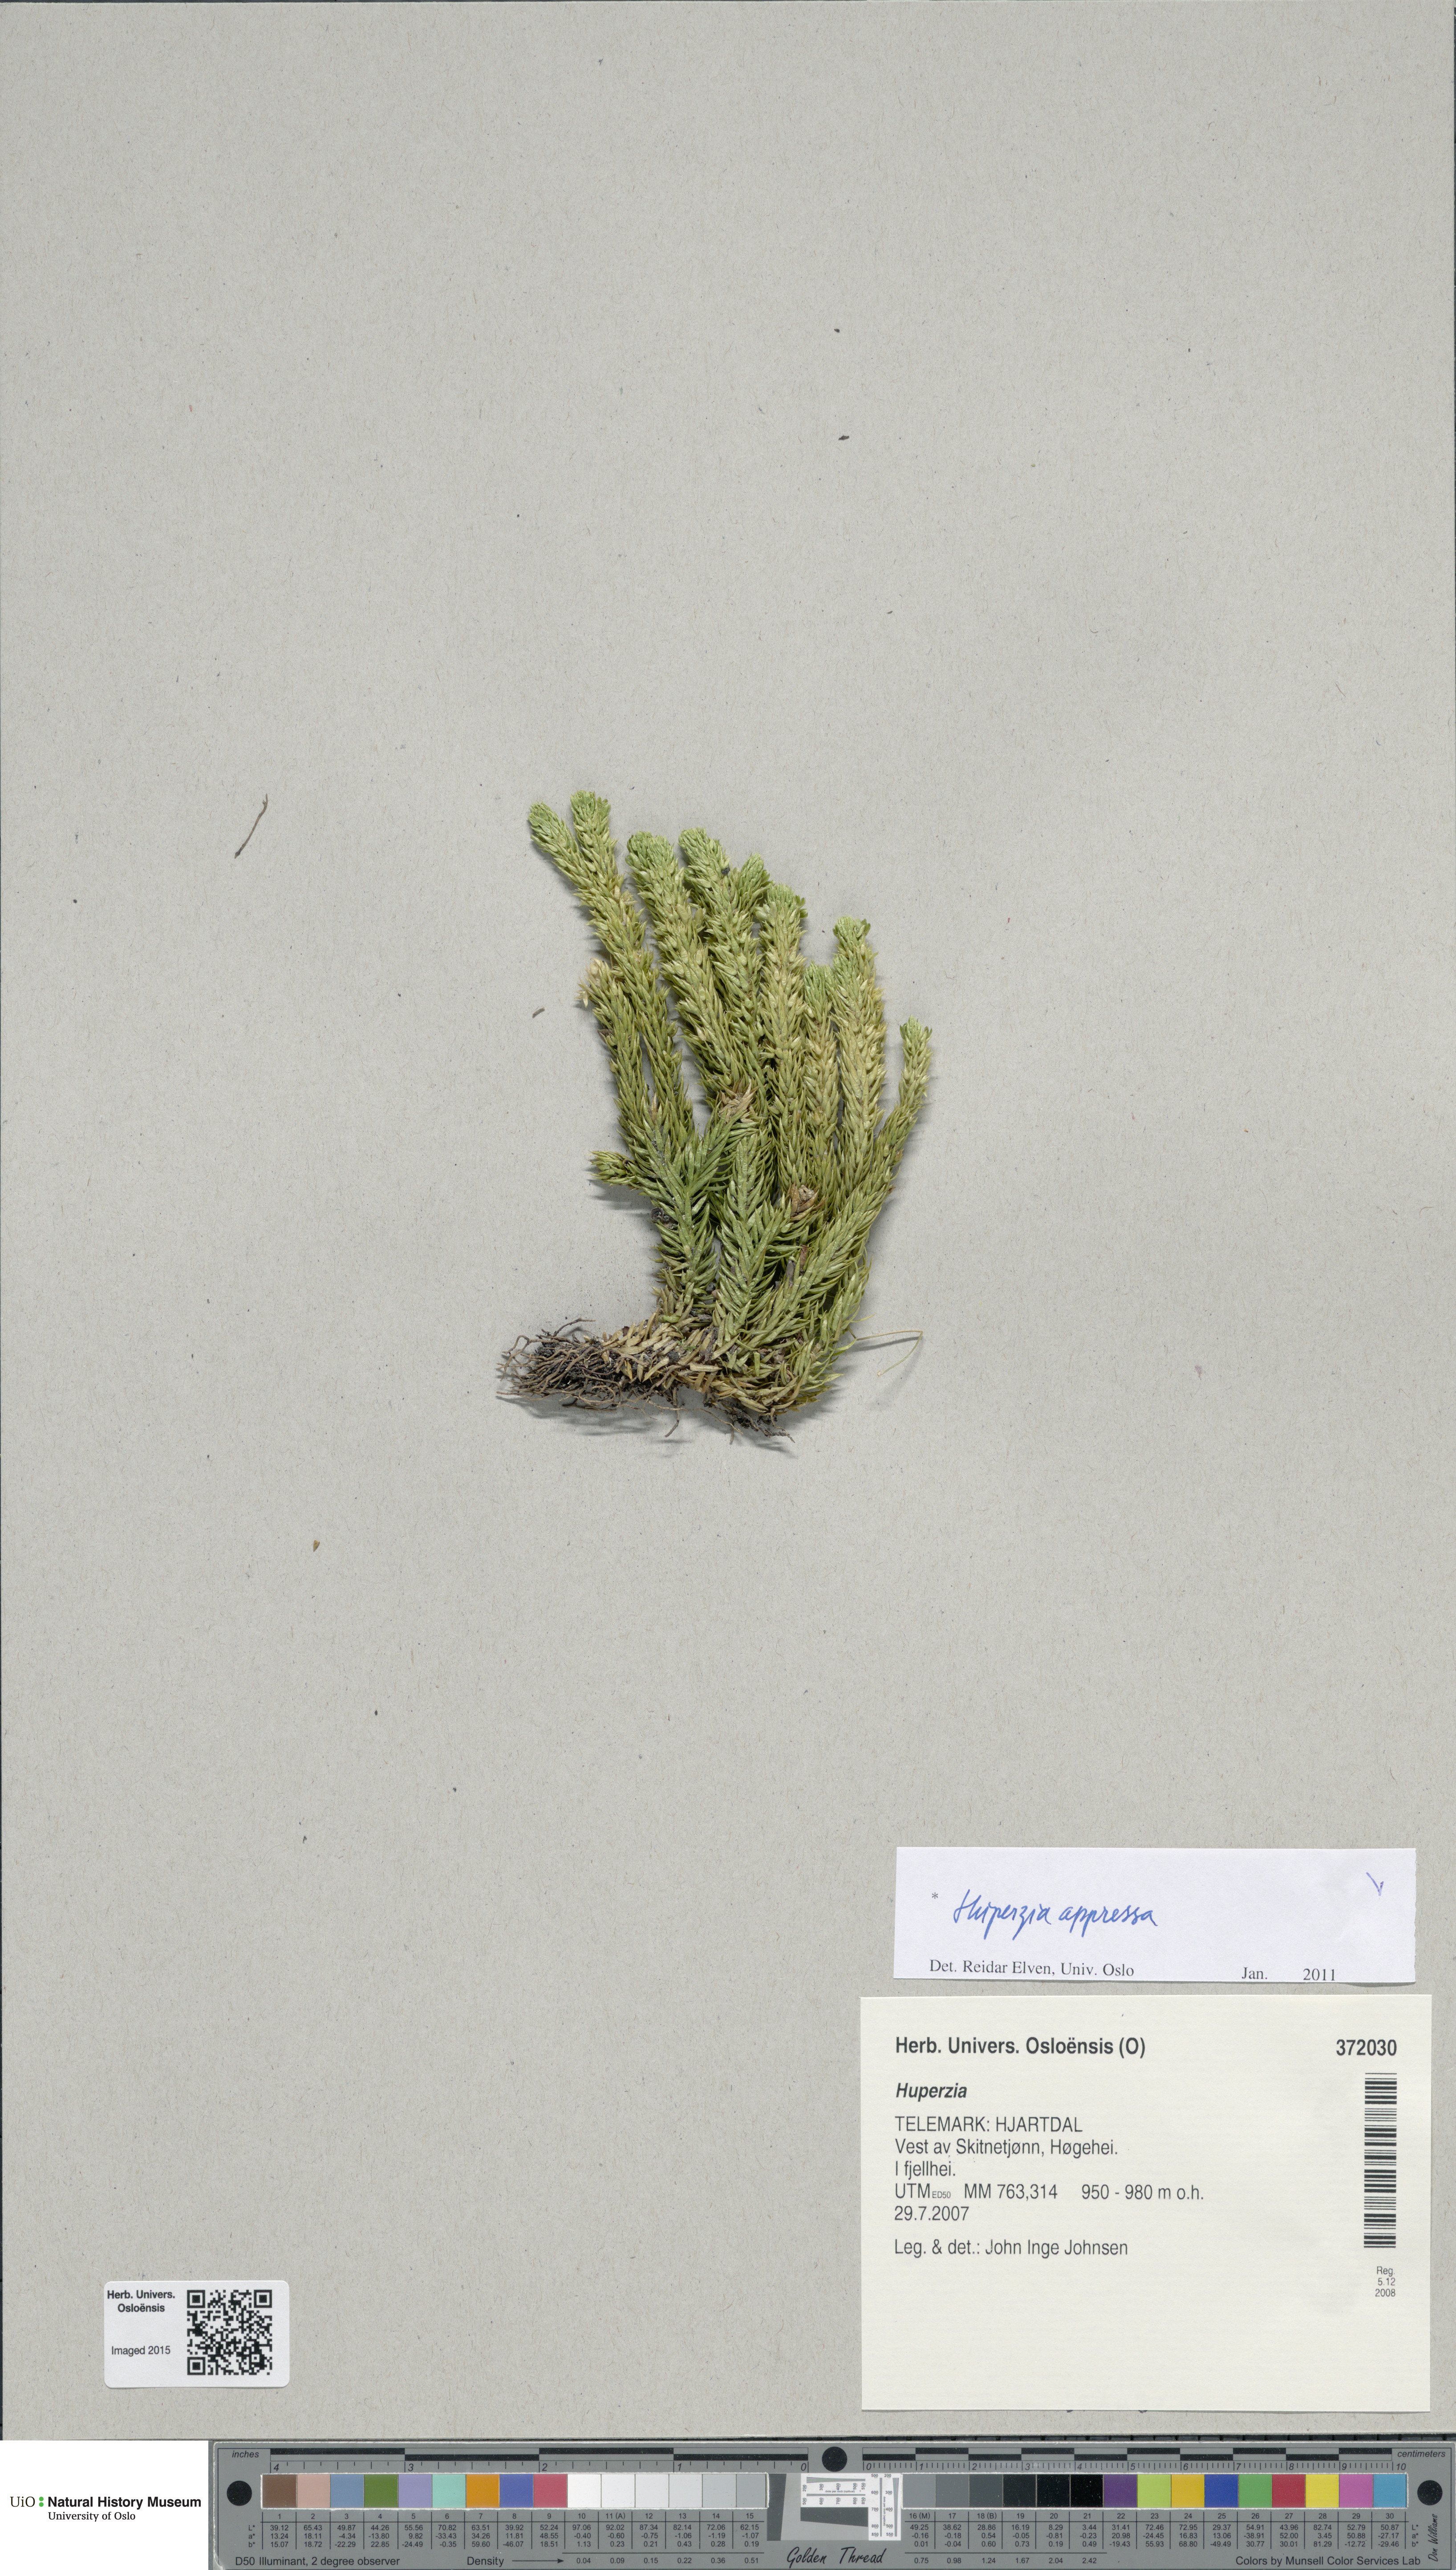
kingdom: Plantae
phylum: Tracheophyta
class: Lycopodiopsida
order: Lycopodiales
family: Lycopodiaceae
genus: Huperzia
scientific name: Huperzia selago
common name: Northern firmoss
